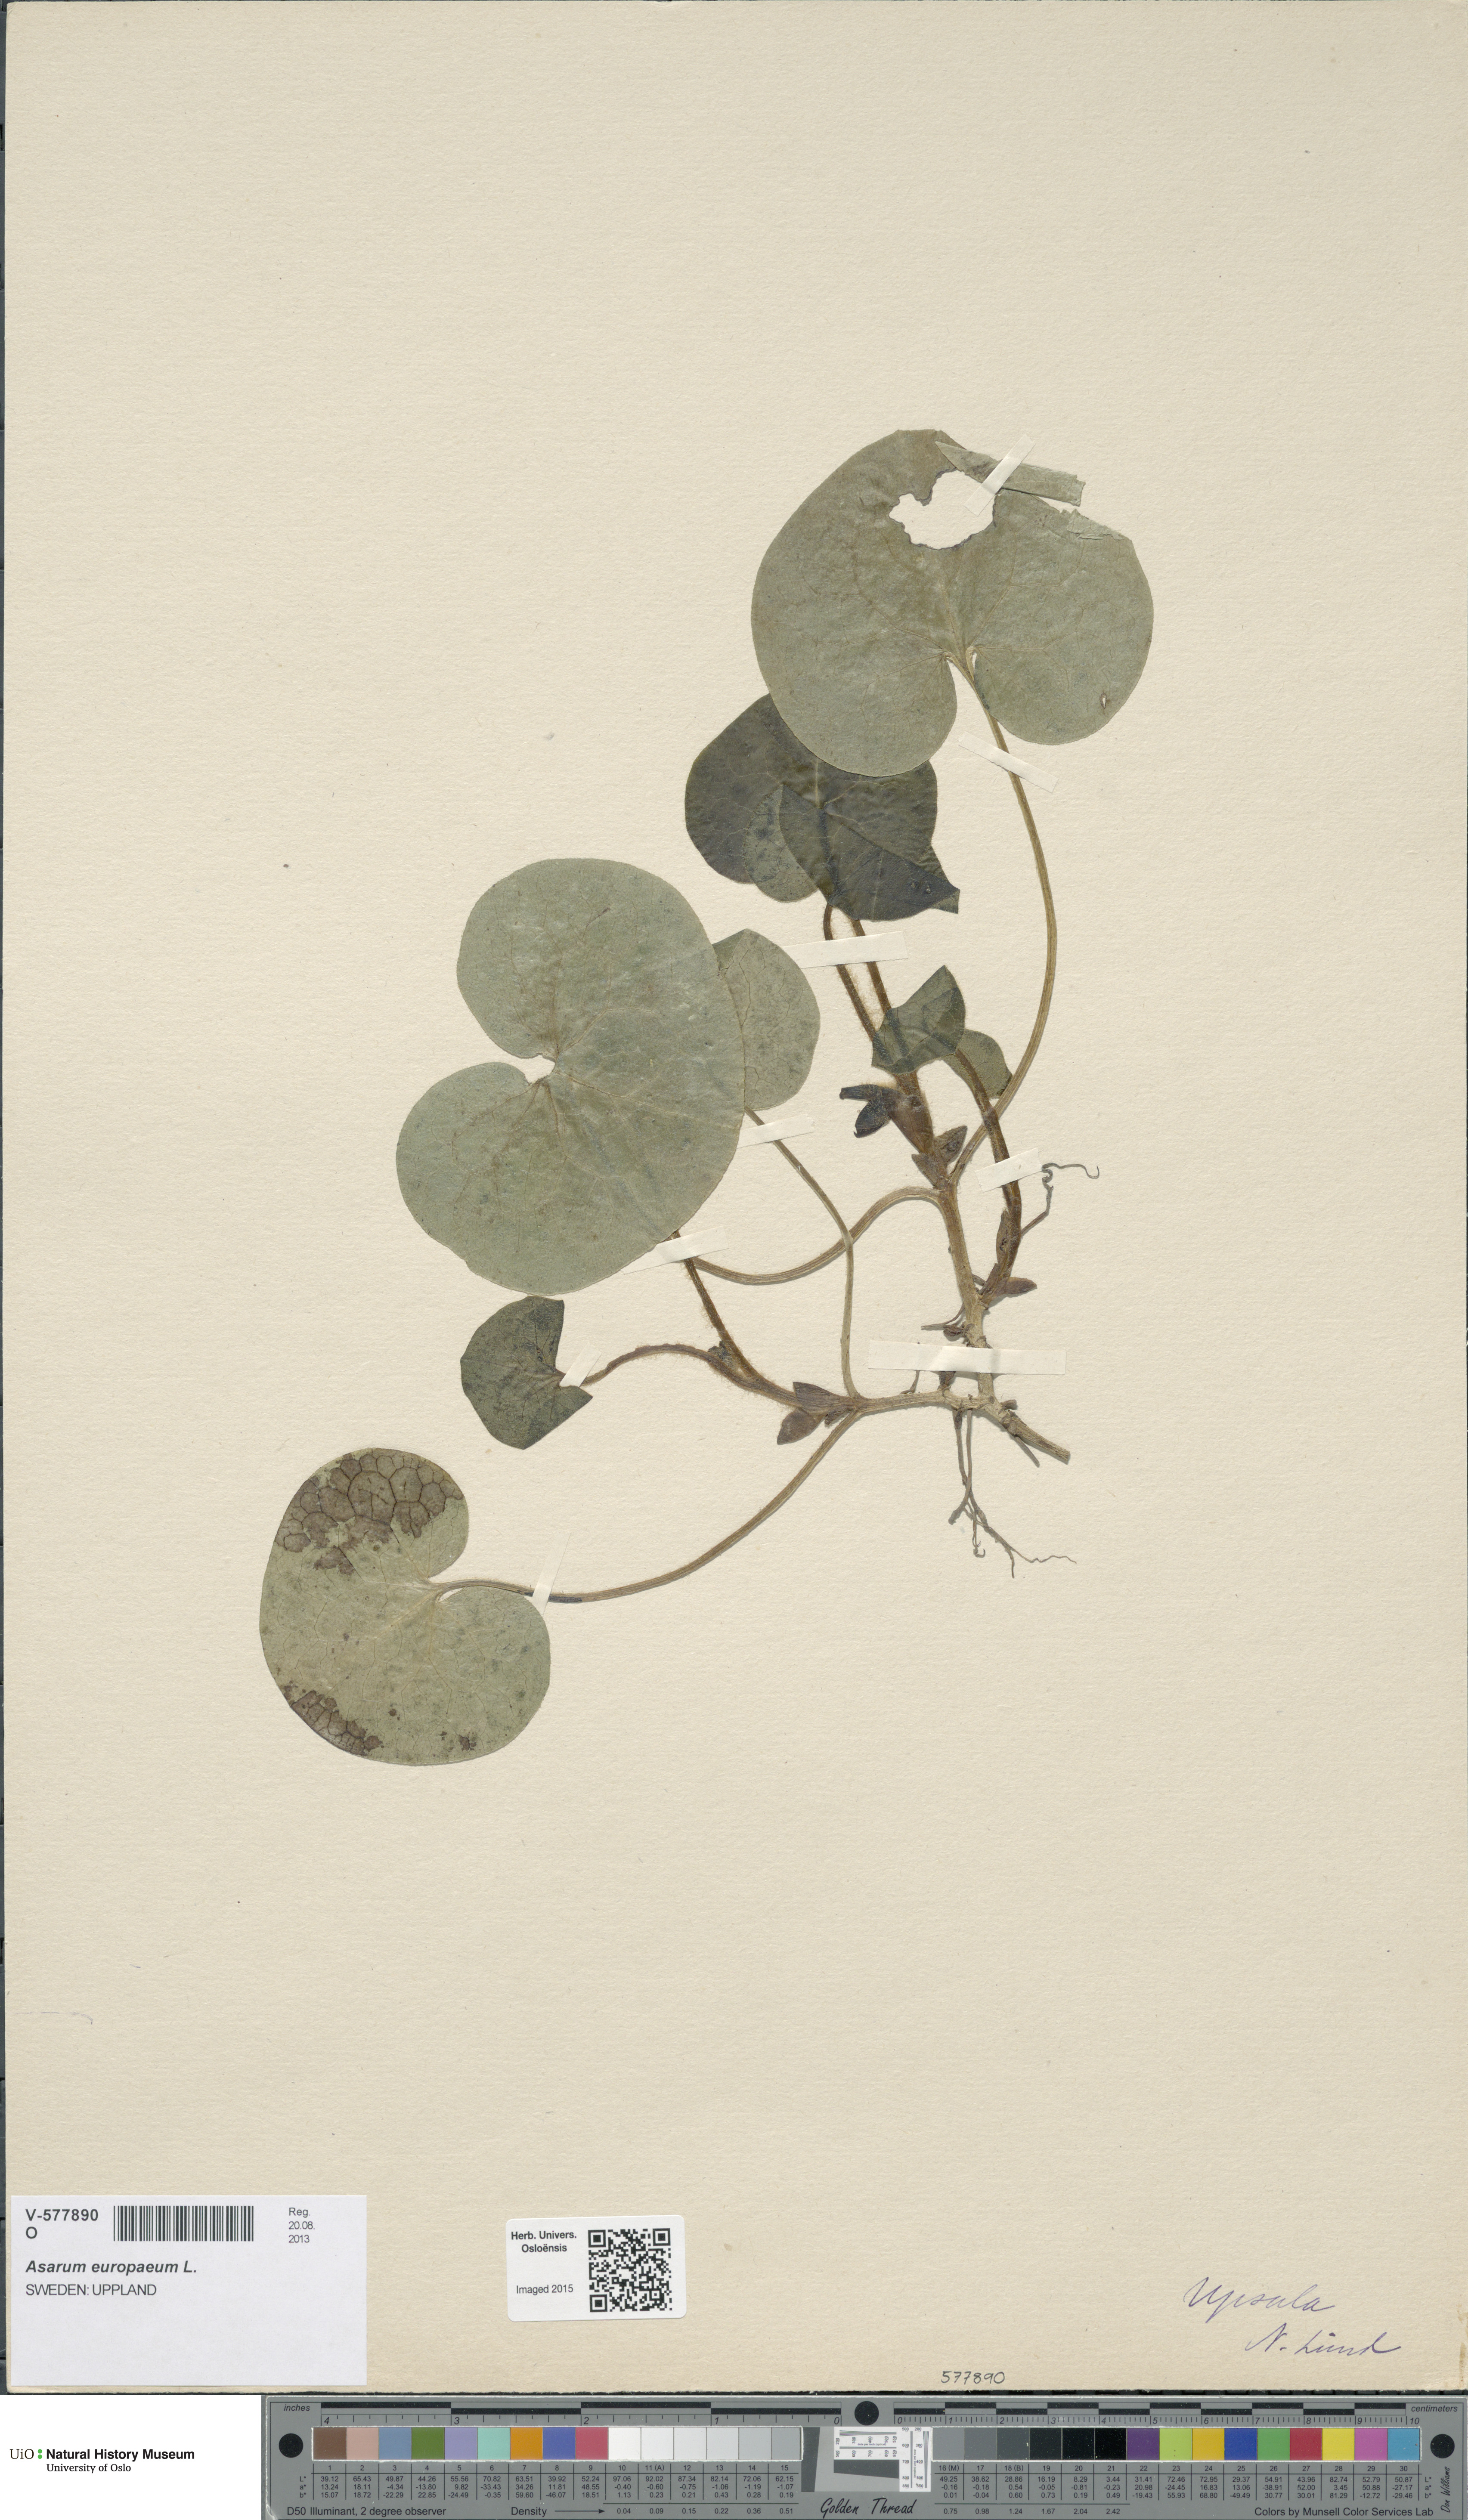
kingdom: Plantae
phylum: Tracheophyta
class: Magnoliopsida
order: Piperales
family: Aristolochiaceae
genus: Asarum
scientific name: Asarum europaeum
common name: Asarabacca
